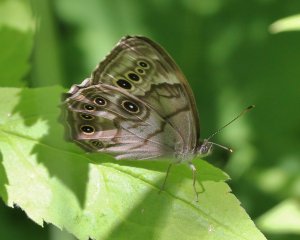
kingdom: Animalia
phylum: Arthropoda
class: Insecta
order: Lepidoptera
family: Nymphalidae
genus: Lethe
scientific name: Lethe anthedon
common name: Northern Pearly-Eye
